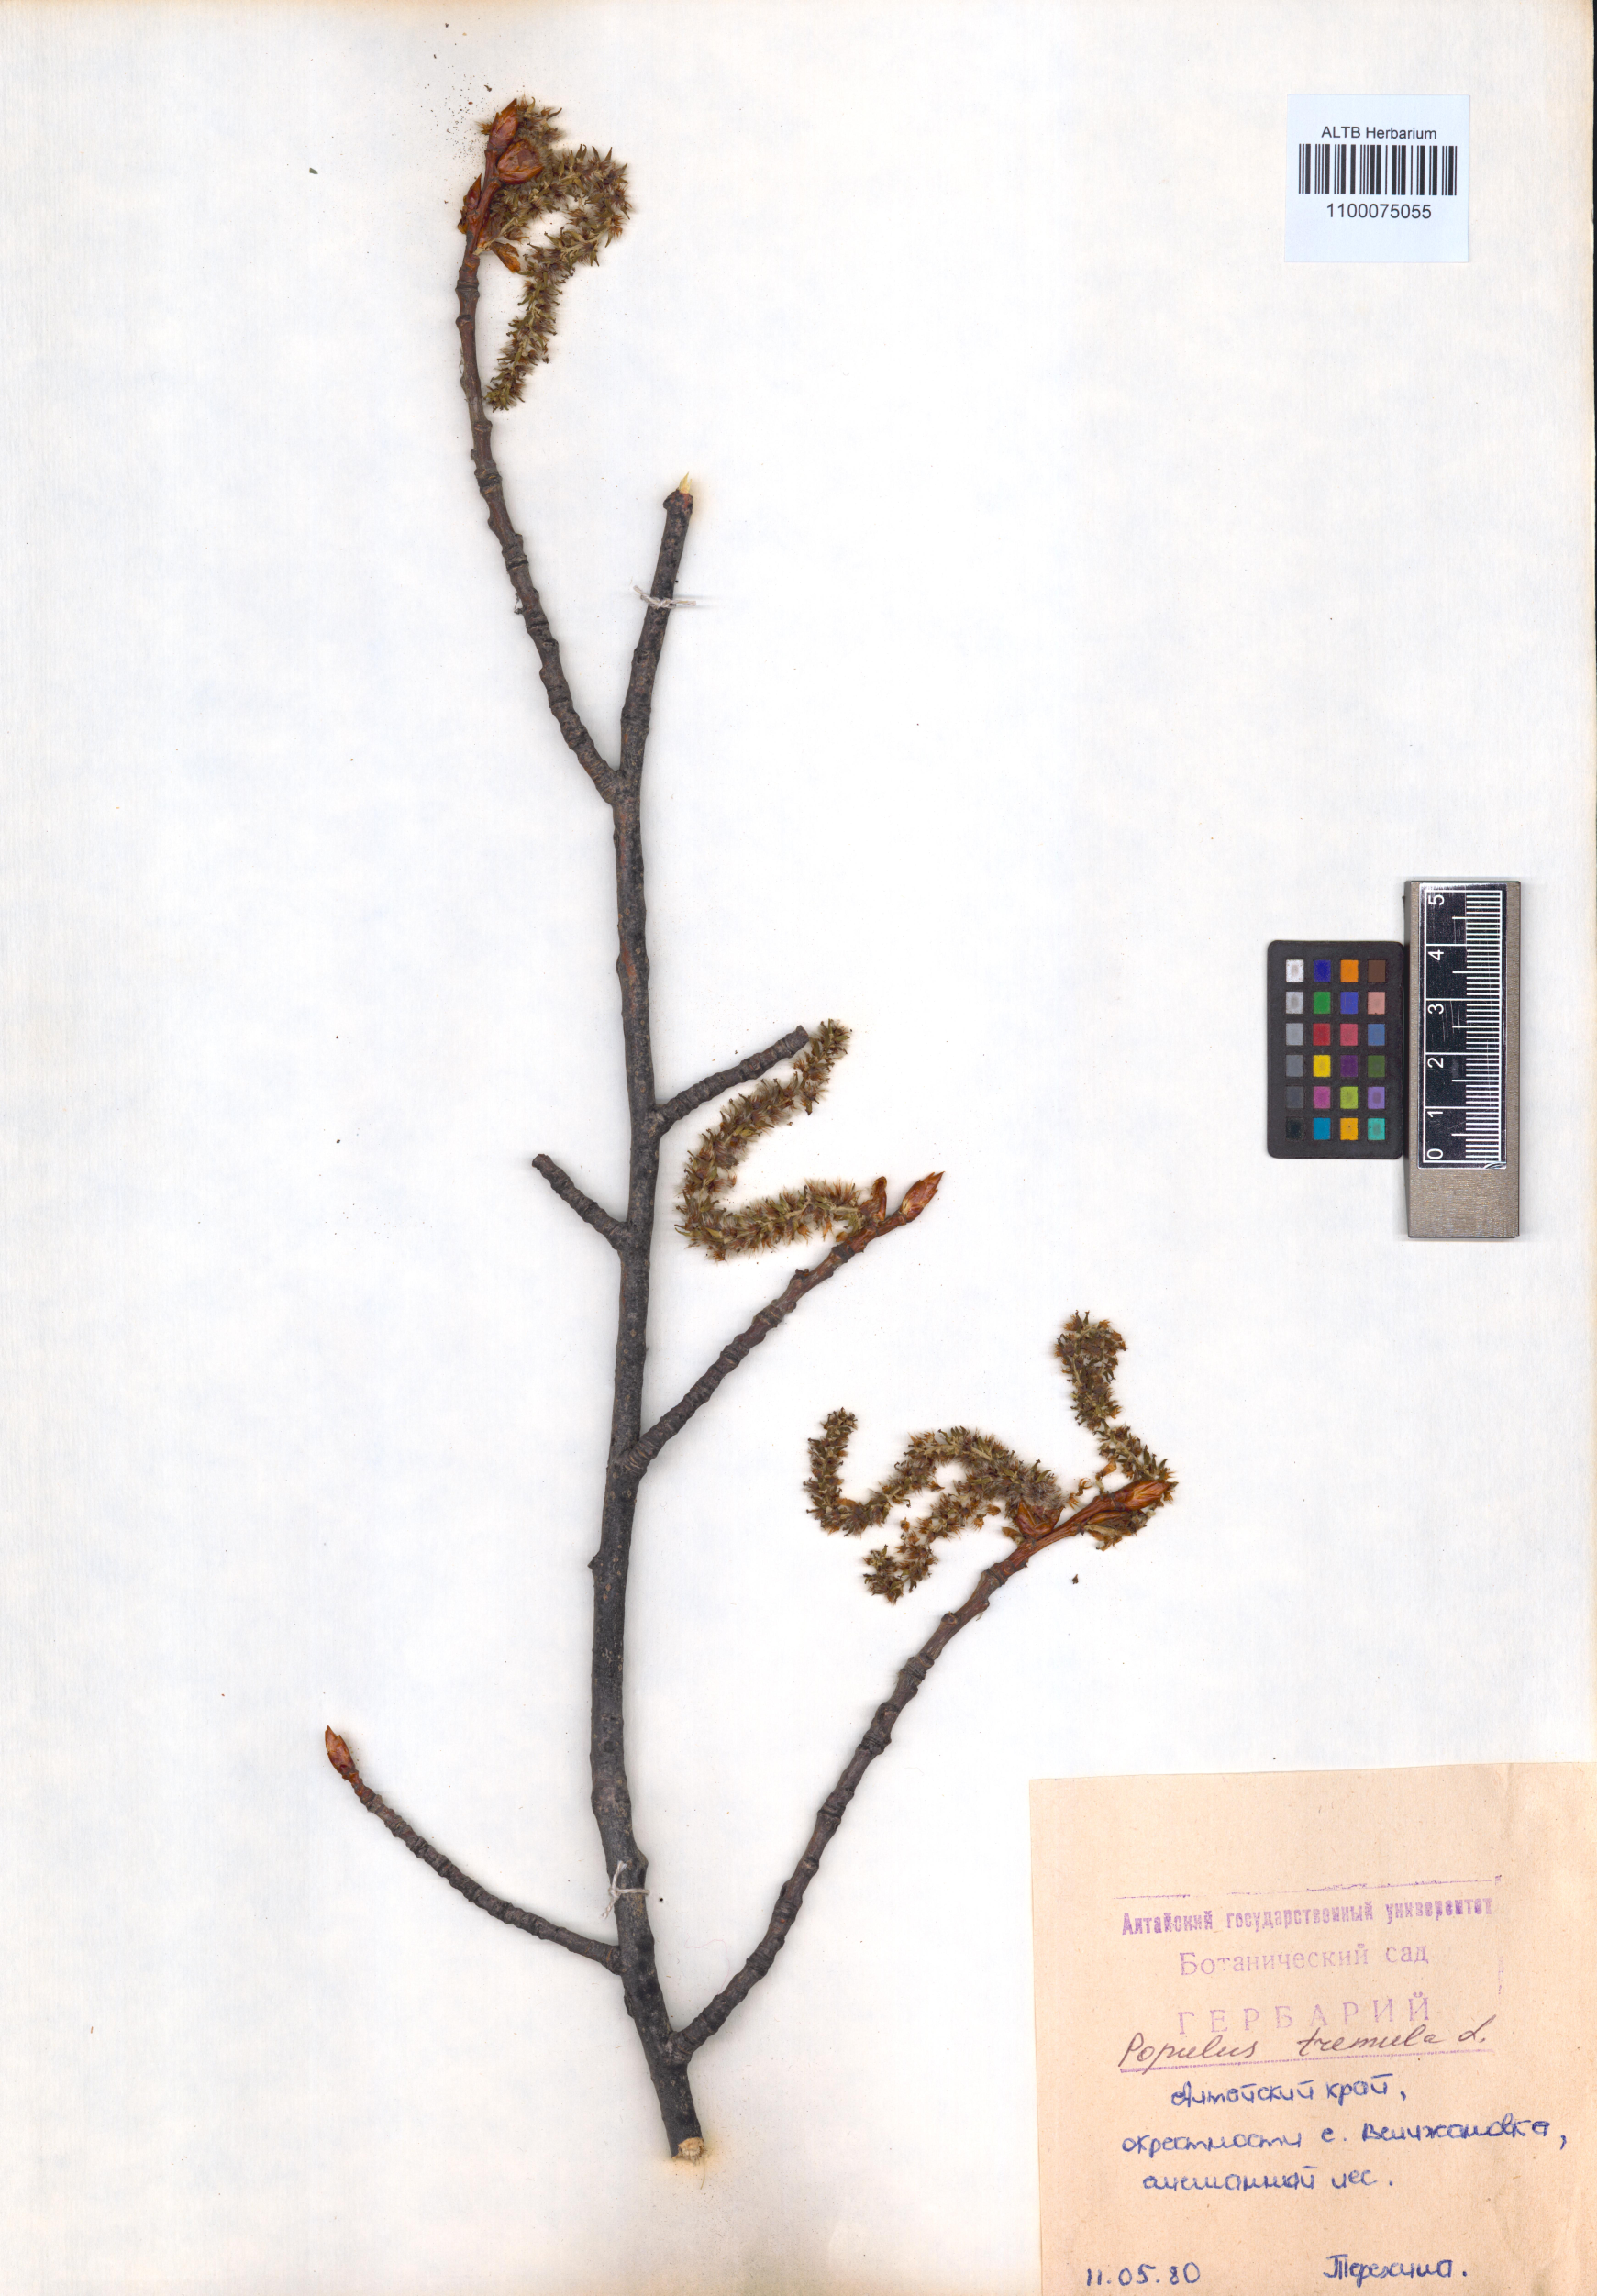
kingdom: Plantae
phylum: Tracheophyta
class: Magnoliopsida
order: Malpighiales
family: Salicaceae
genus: Populus
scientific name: Populus tremula
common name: European aspen
